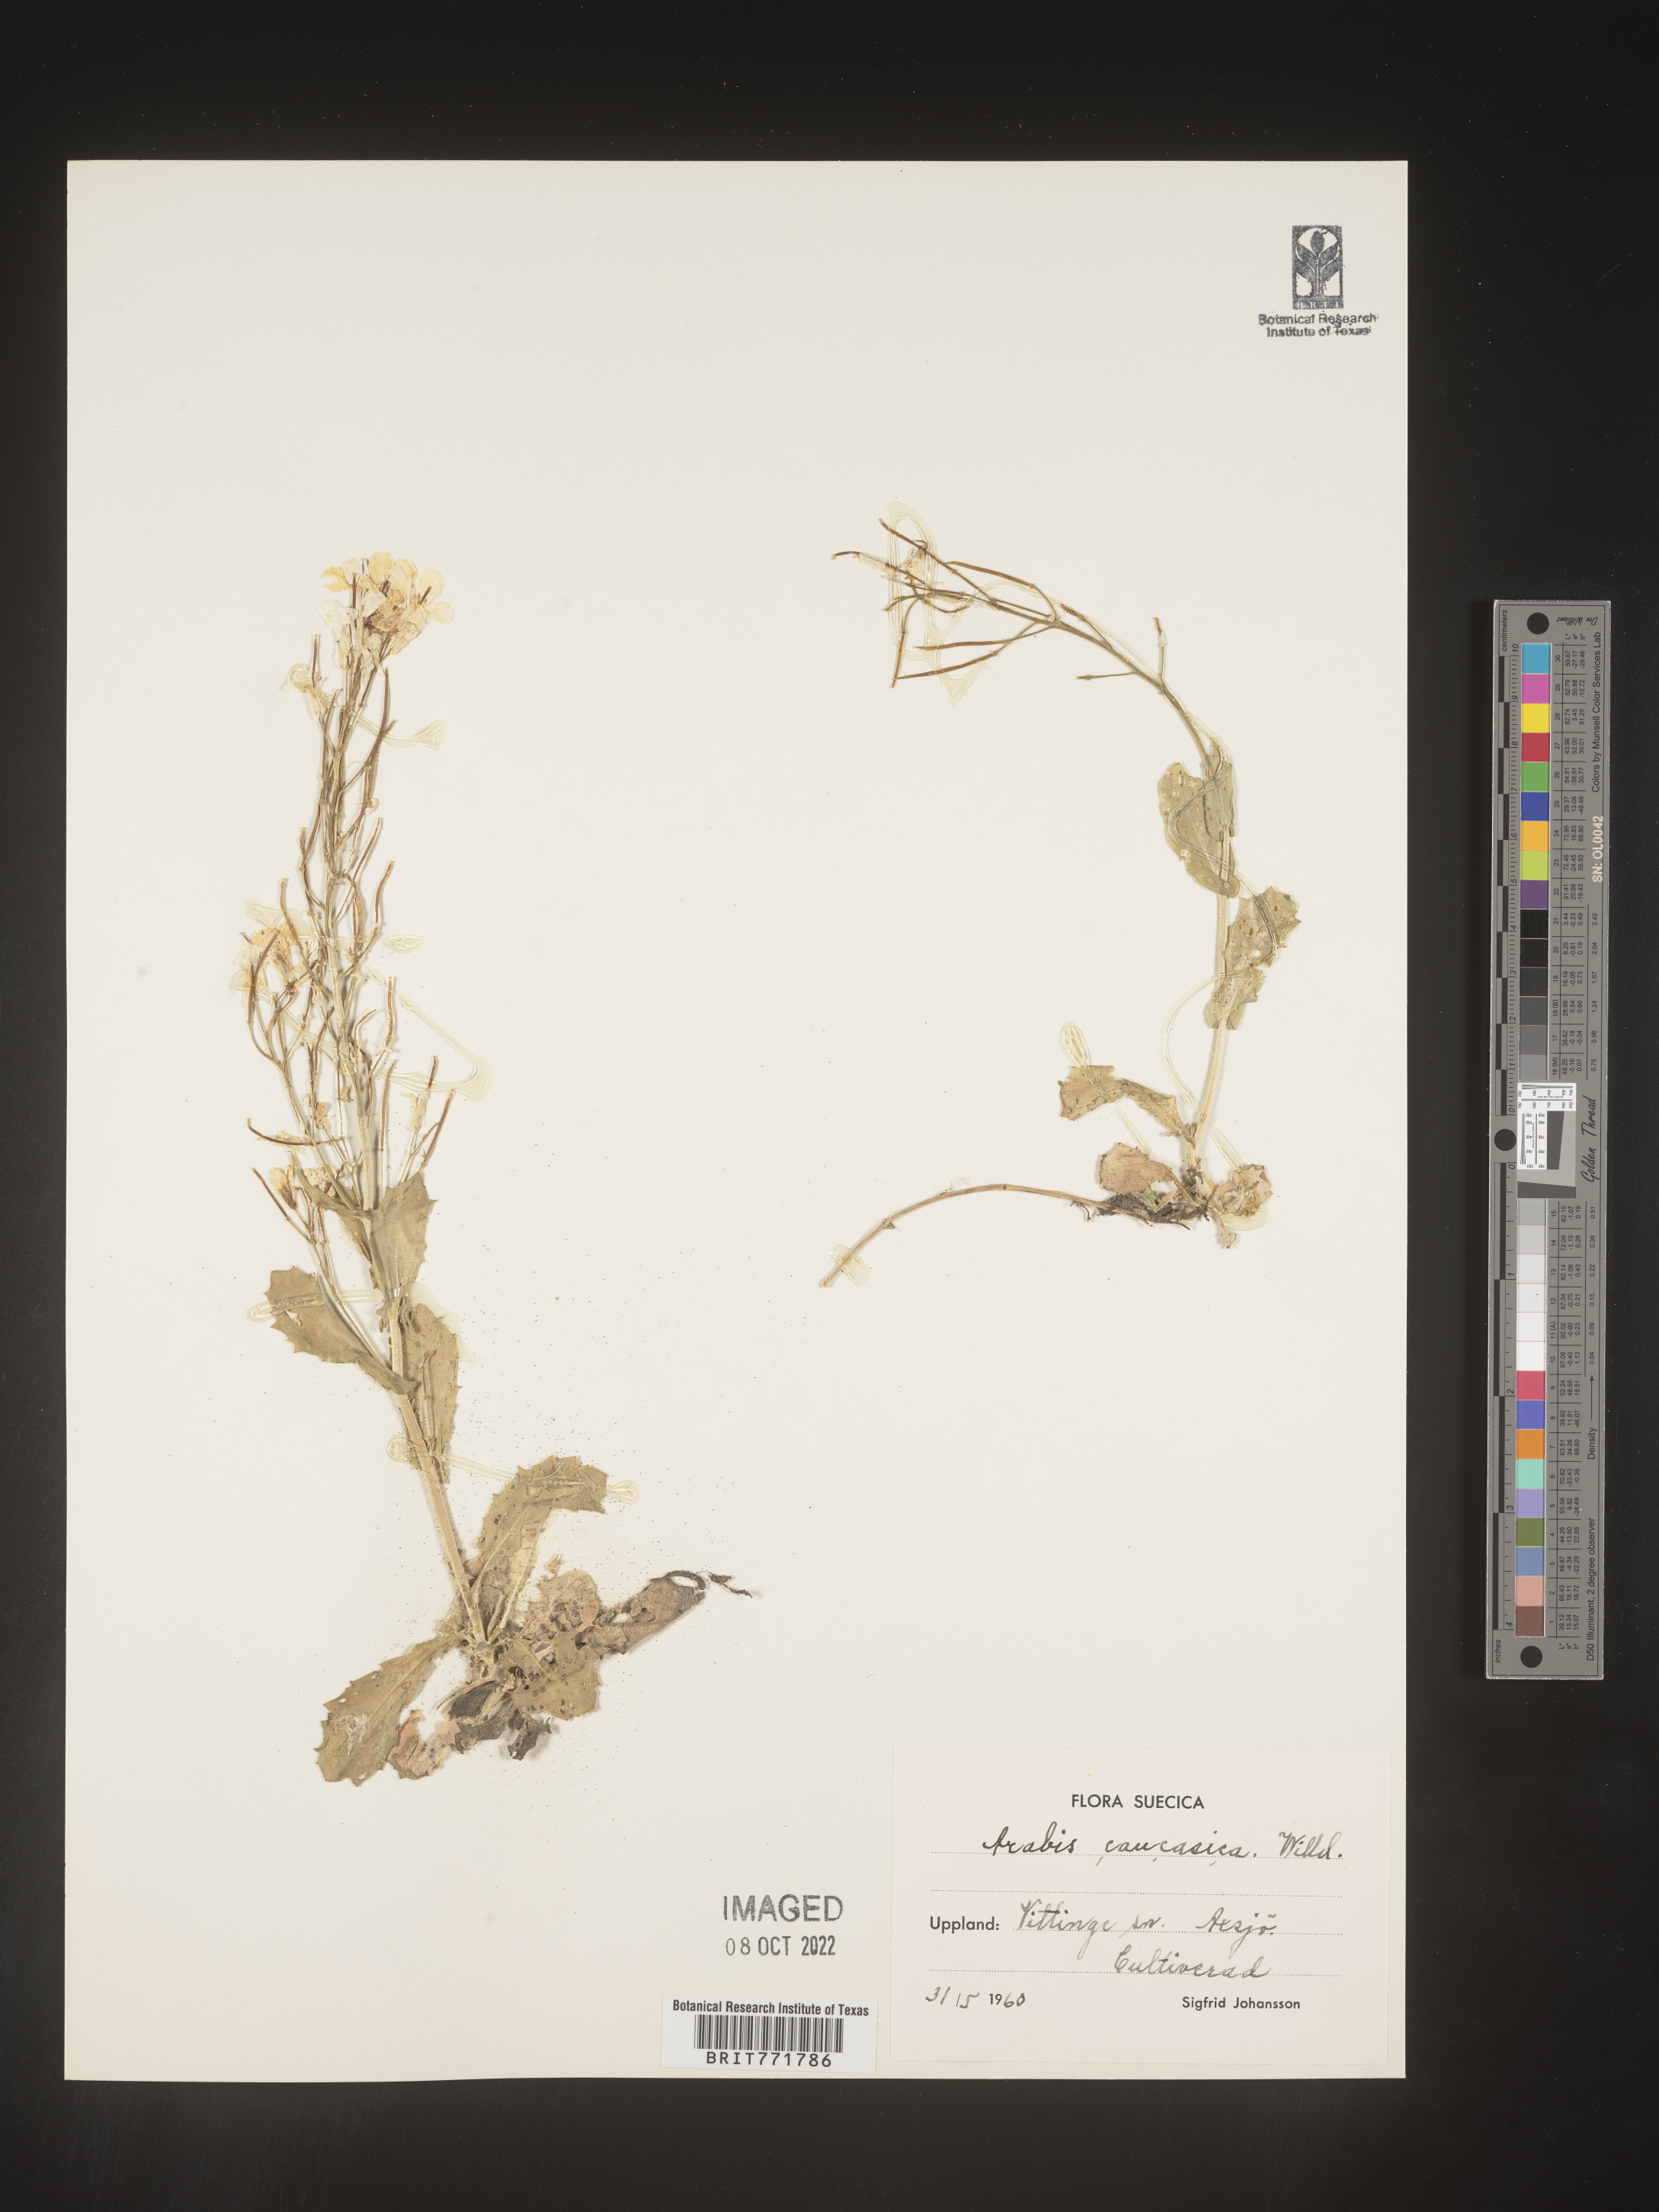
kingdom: Plantae
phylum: Tracheophyta
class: Magnoliopsida
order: Brassicales
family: Brassicaceae
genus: Arabis
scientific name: Arabis
